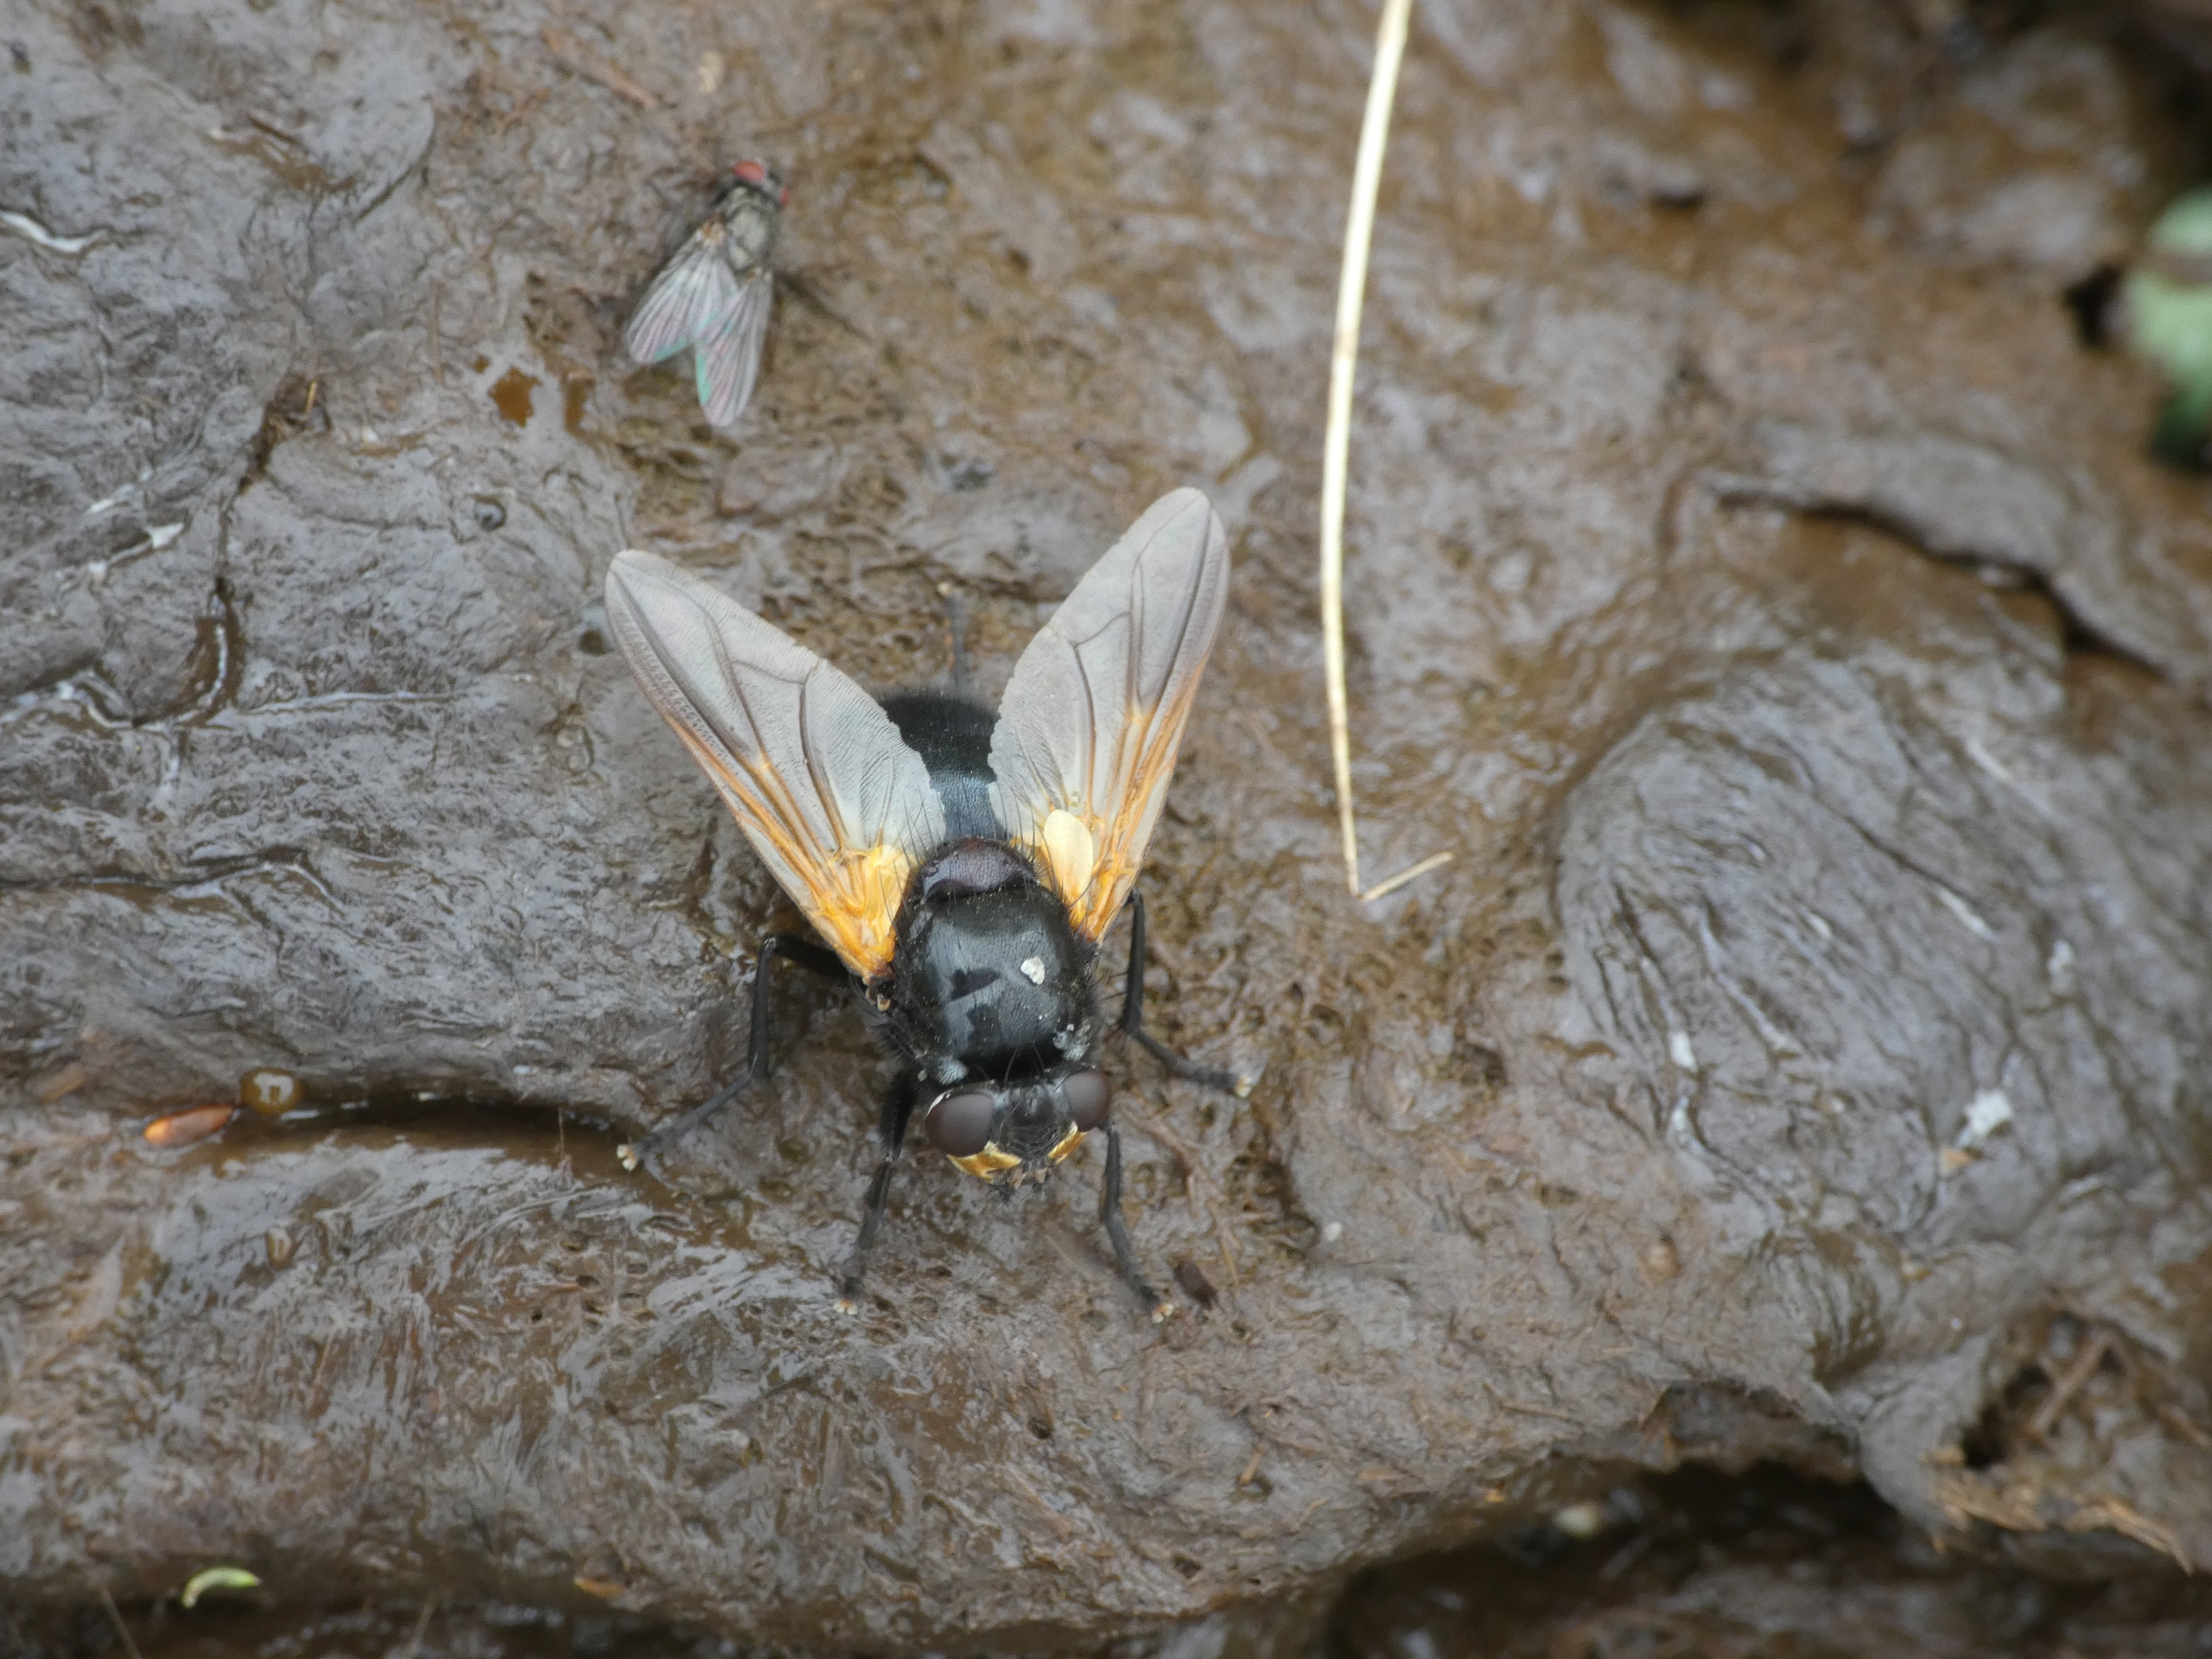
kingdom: Animalia
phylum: Arthropoda
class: Insecta
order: Diptera
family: Muscidae
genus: Mesembrina
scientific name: Mesembrina meridiana
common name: Gulvinget flue
